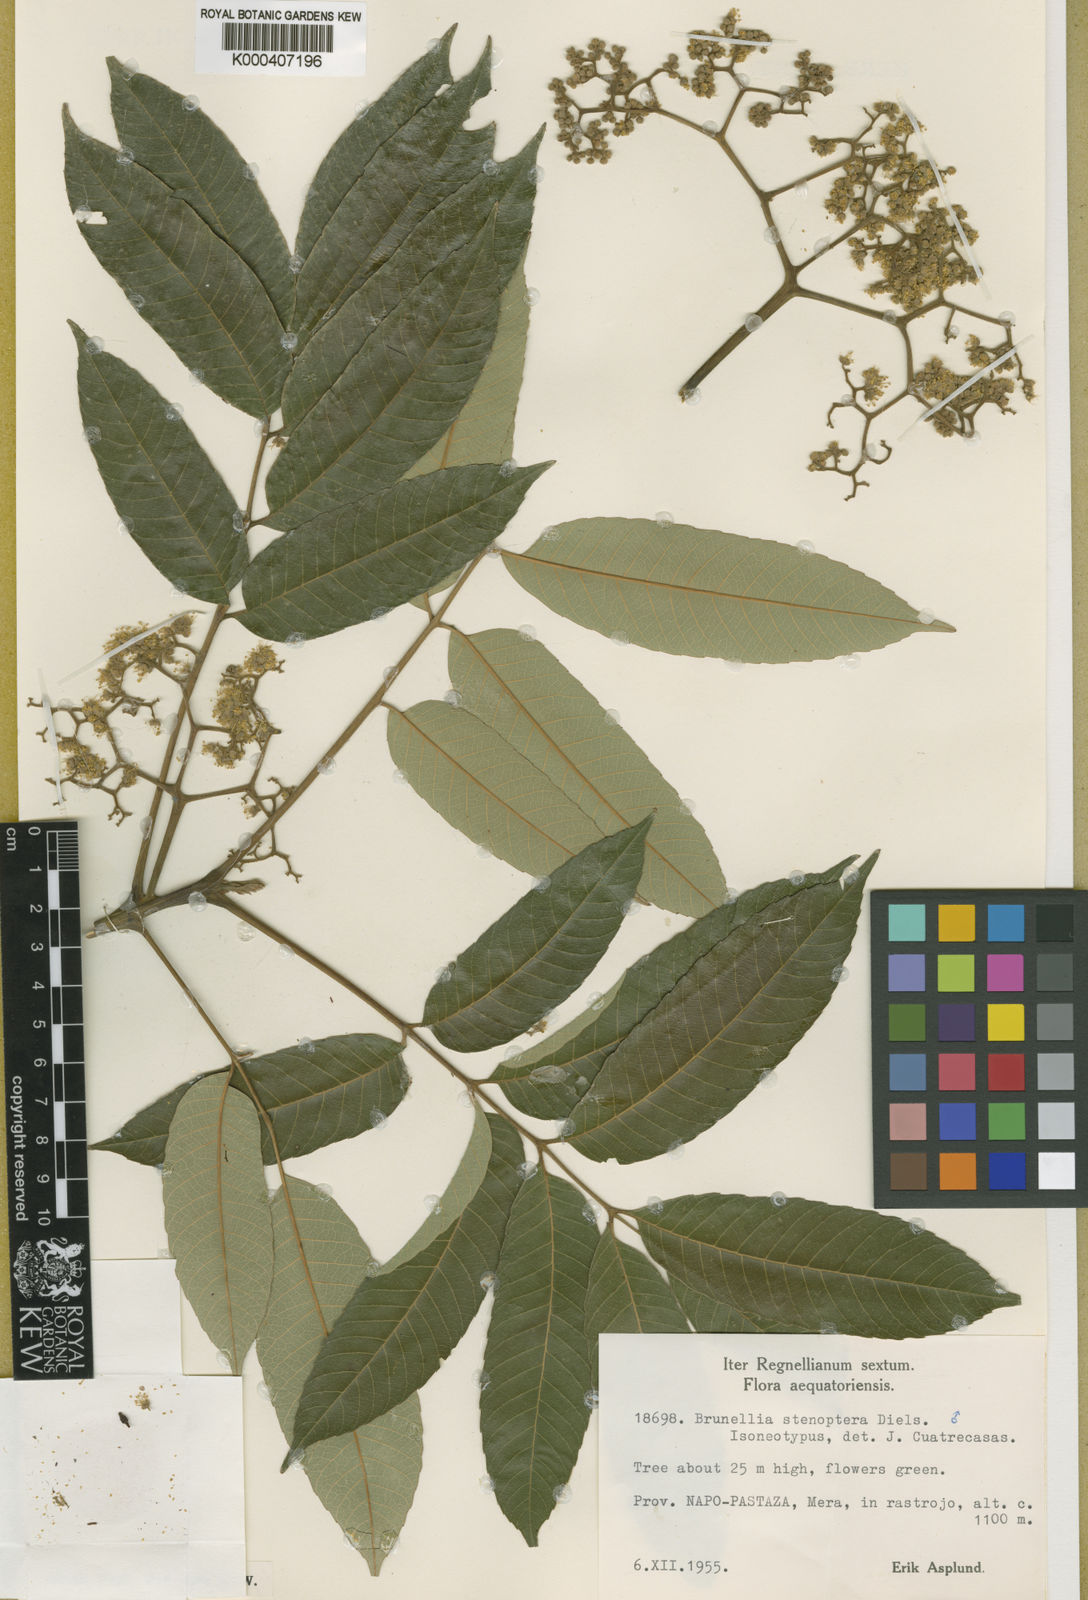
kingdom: Plantae
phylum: Tracheophyta
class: Magnoliopsida
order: Oxalidales
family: Brunelliaceae
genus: Brunellia
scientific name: Brunellia stenoptera
